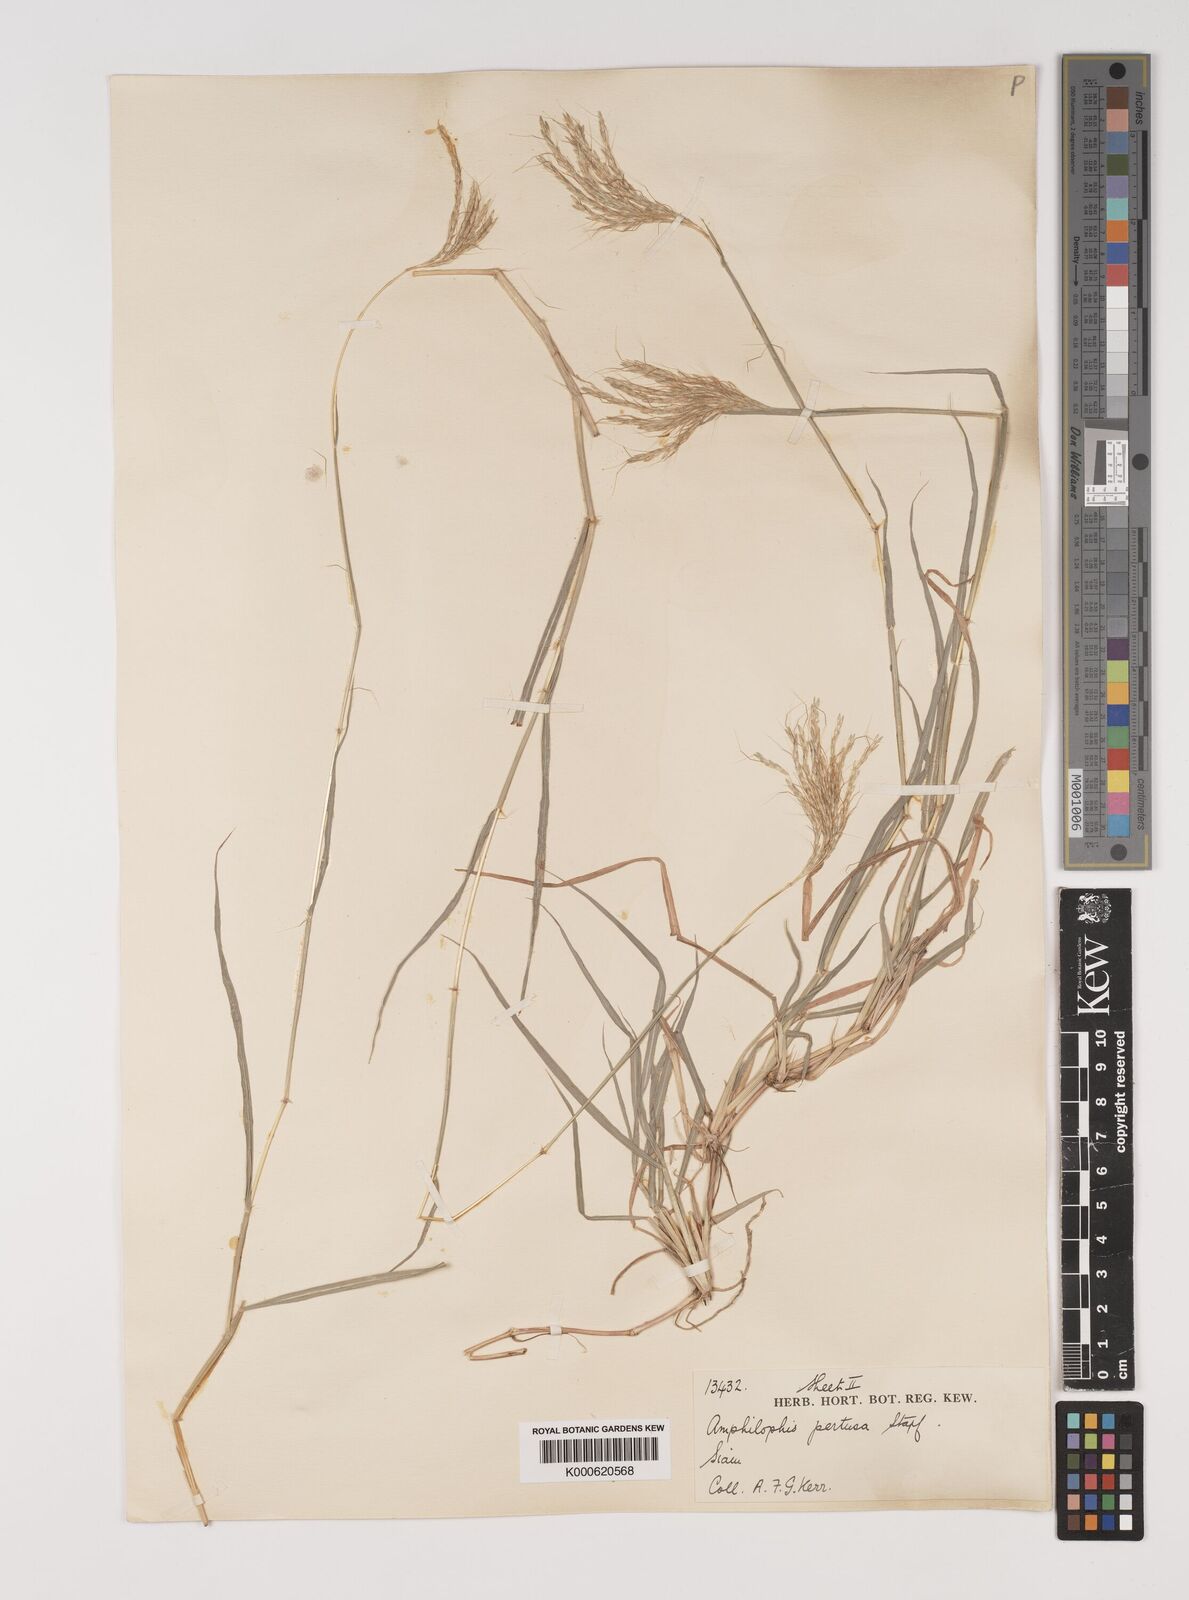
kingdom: Plantae
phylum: Tracheophyta
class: Liliopsida
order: Poales
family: Poaceae
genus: Bothriochloa
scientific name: Bothriochloa pertusa
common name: Pitted beardgrass
